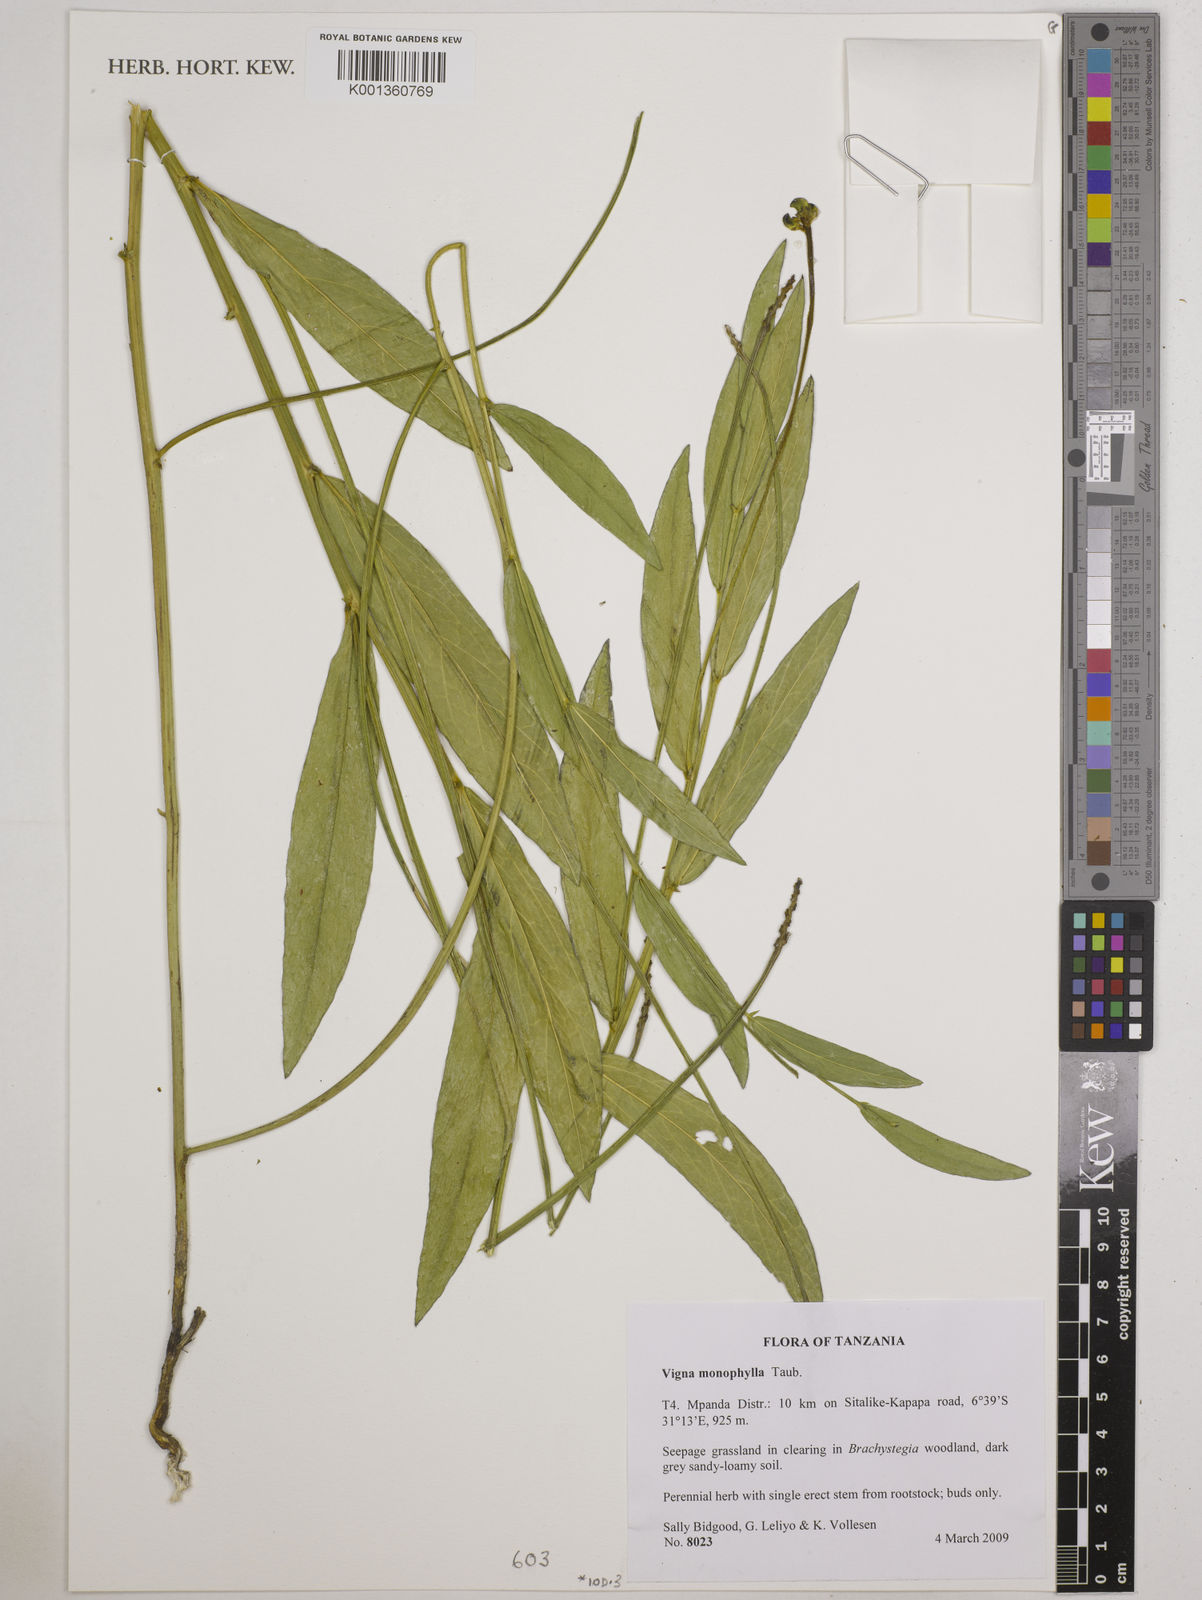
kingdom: Plantae
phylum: Tracheophyta
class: Magnoliopsida
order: Fabales
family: Fabaceae
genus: Vigna
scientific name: Vigna monophylla
